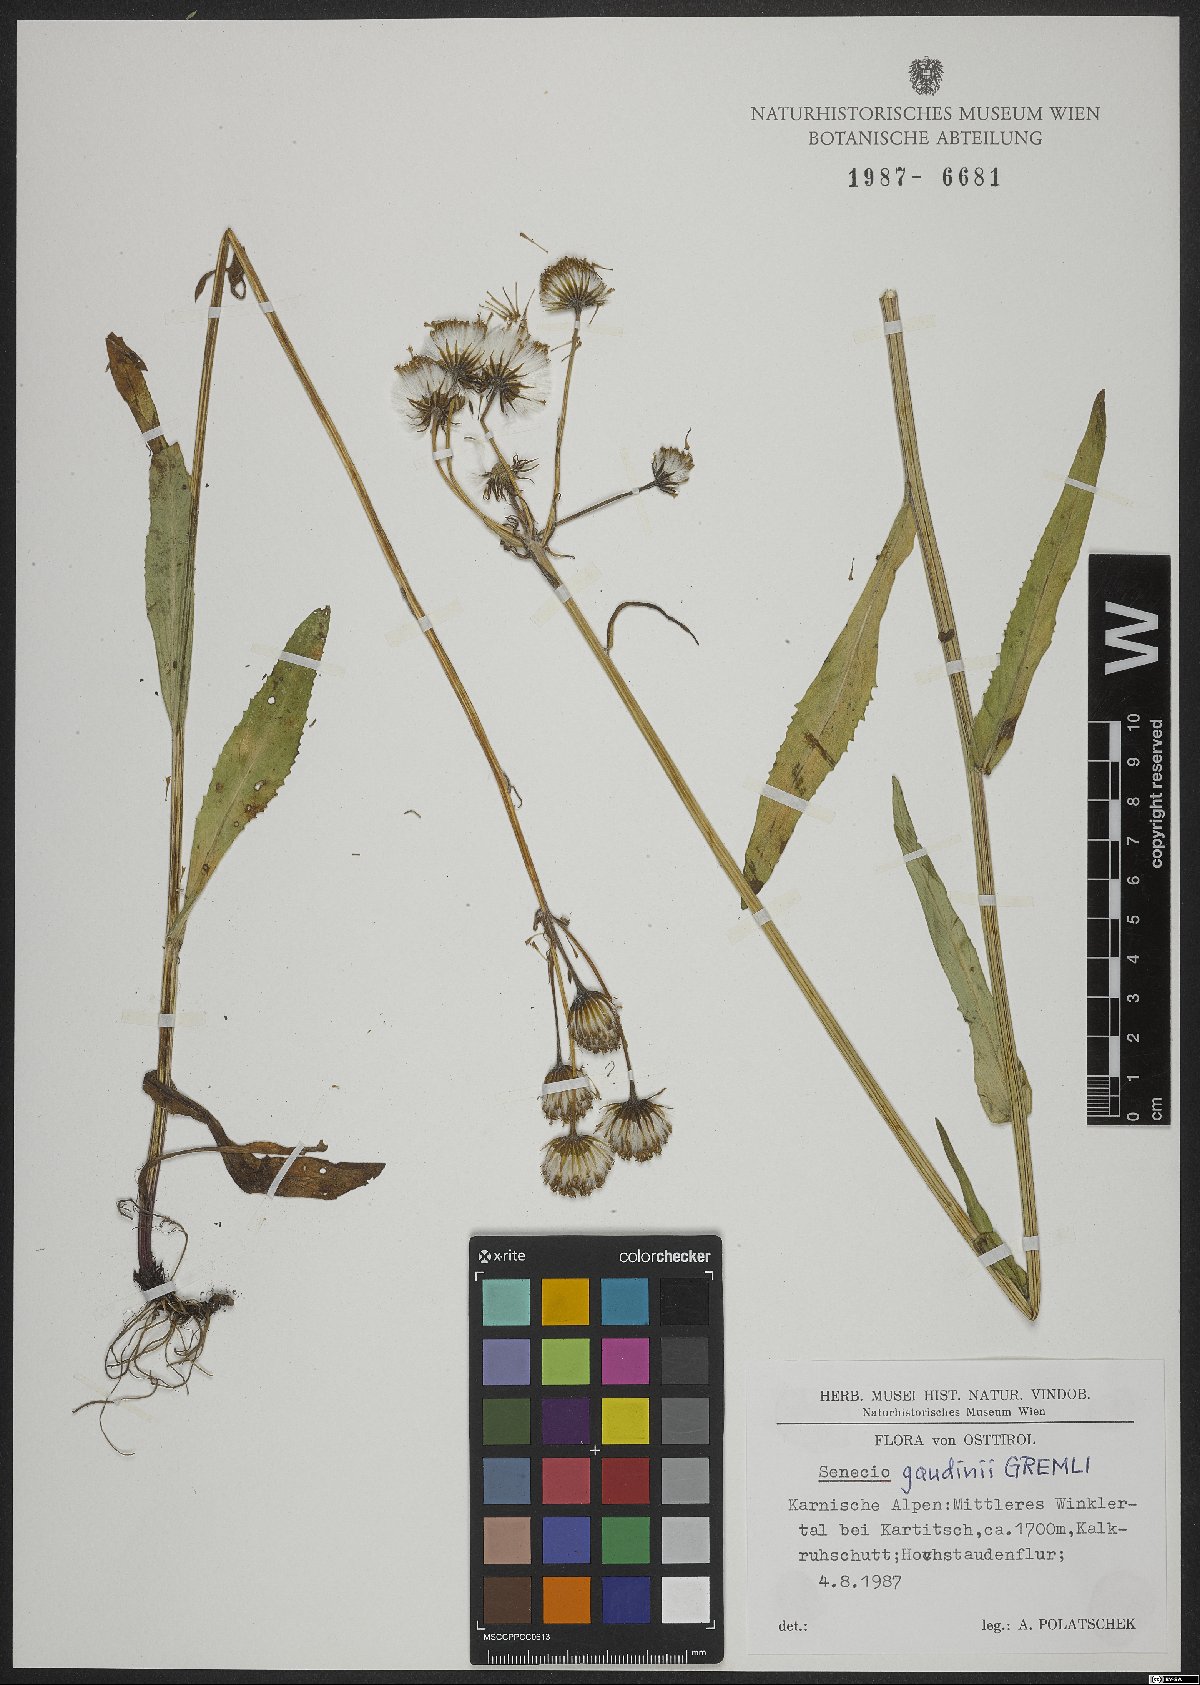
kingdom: Plantae
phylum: Tracheophyta
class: Magnoliopsida
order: Asterales
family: Asteraceae
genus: Tephroseris
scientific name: Tephroseris tenuifolia
